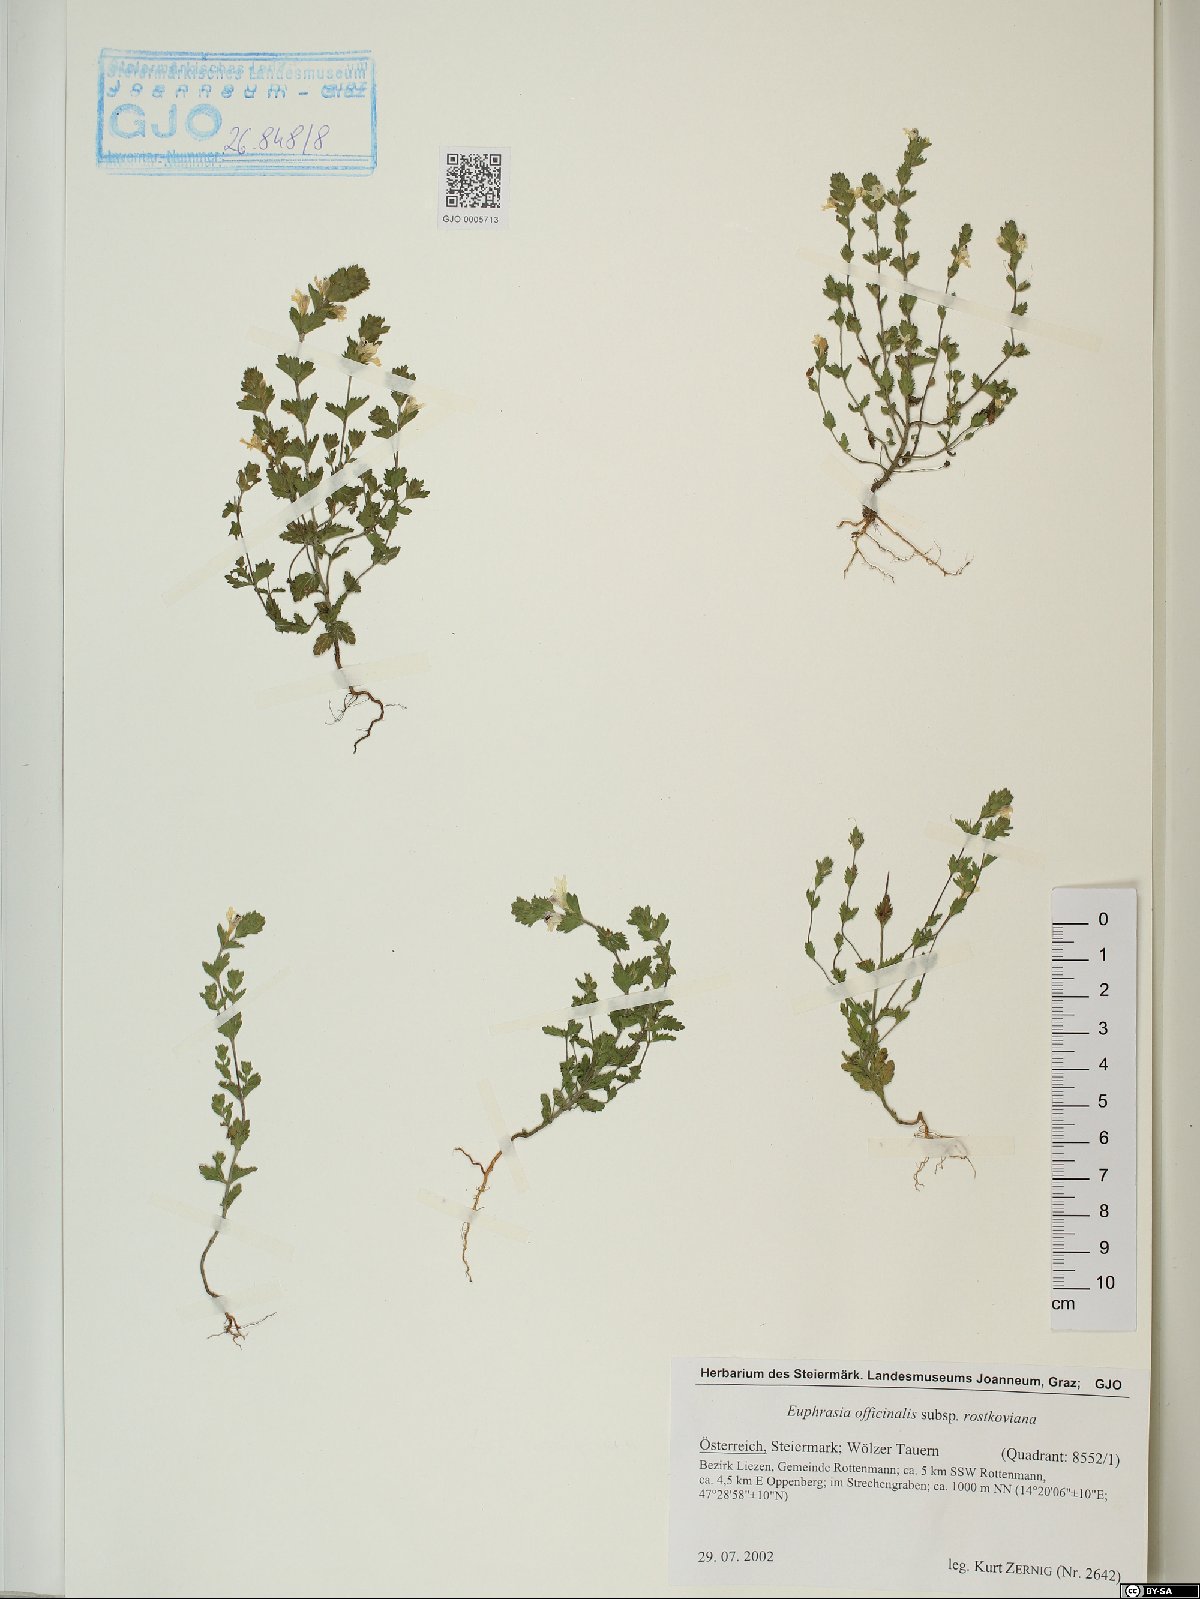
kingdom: Plantae
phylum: Tracheophyta
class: Magnoliopsida
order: Lamiales
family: Orobanchaceae
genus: Euphrasia
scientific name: Euphrasia officinalis
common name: Eyebright
